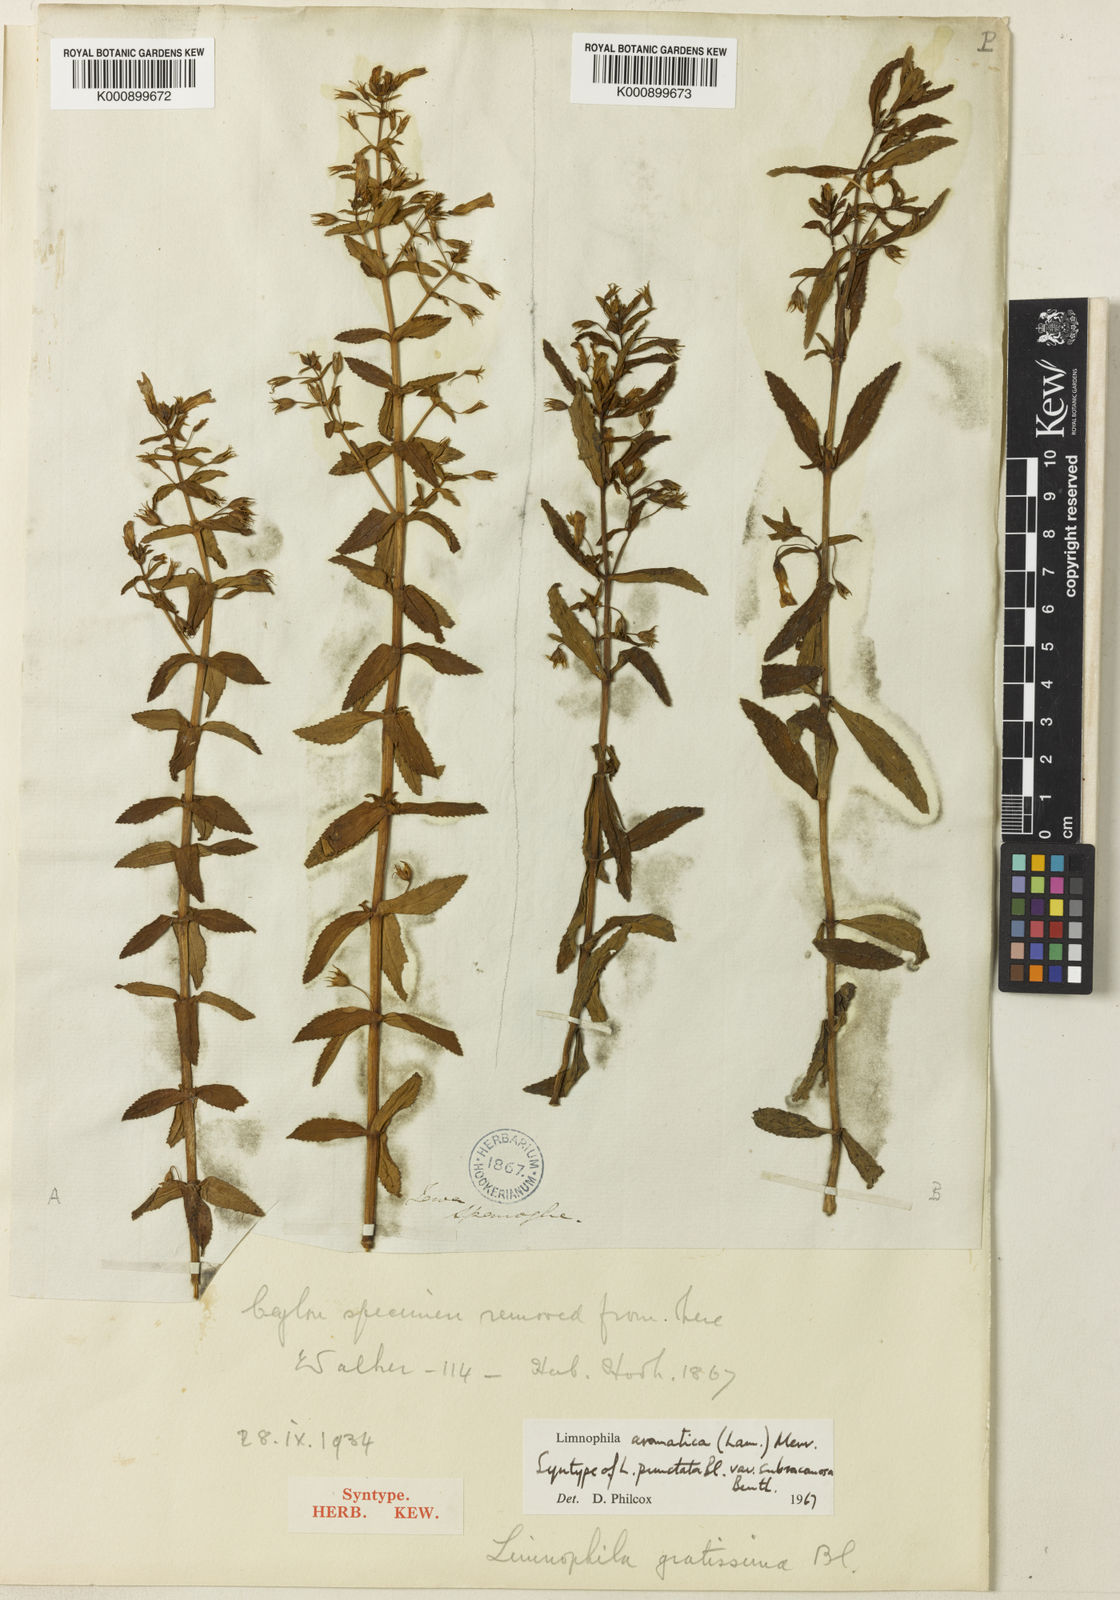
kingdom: Plantae
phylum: Tracheophyta
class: Magnoliopsida
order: Lamiales
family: Plantaginaceae
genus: Limnophila
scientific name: Limnophila aromatica
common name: Finger grass
